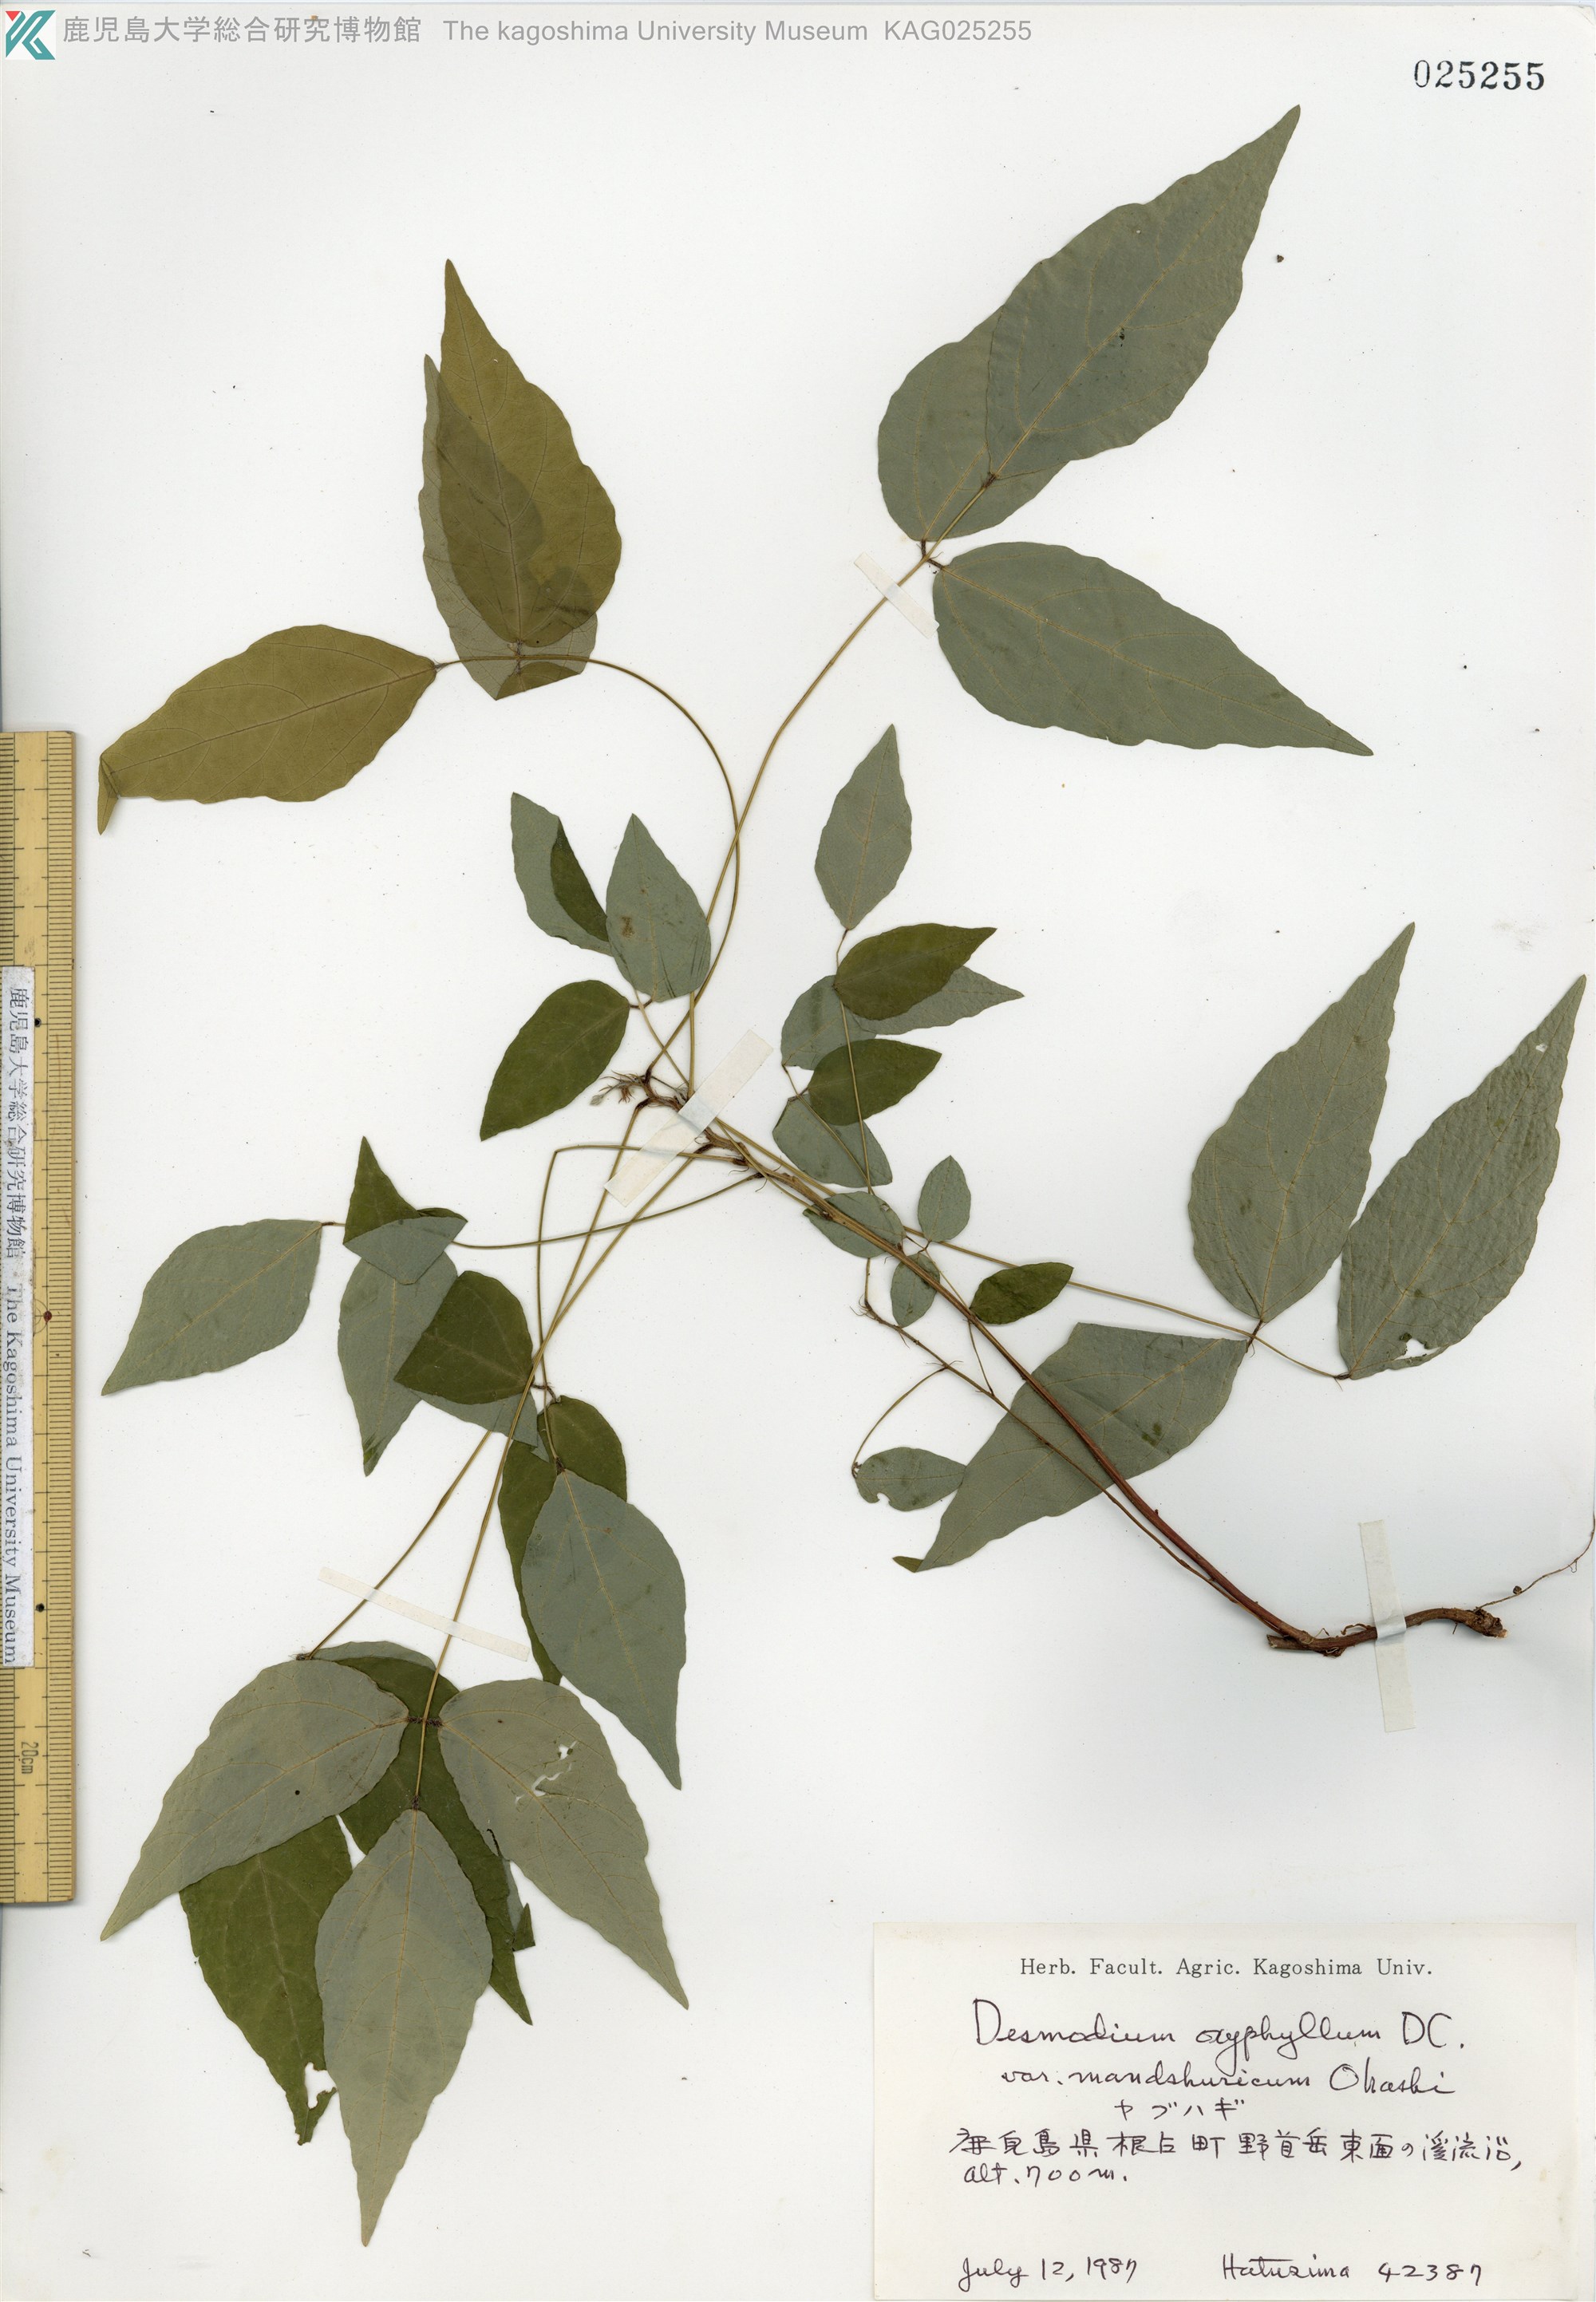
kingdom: Plantae
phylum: Tracheophyta
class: Magnoliopsida
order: Fabales
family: Fabaceae
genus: Hylodesmum
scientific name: Hylodesmum podocarpum
